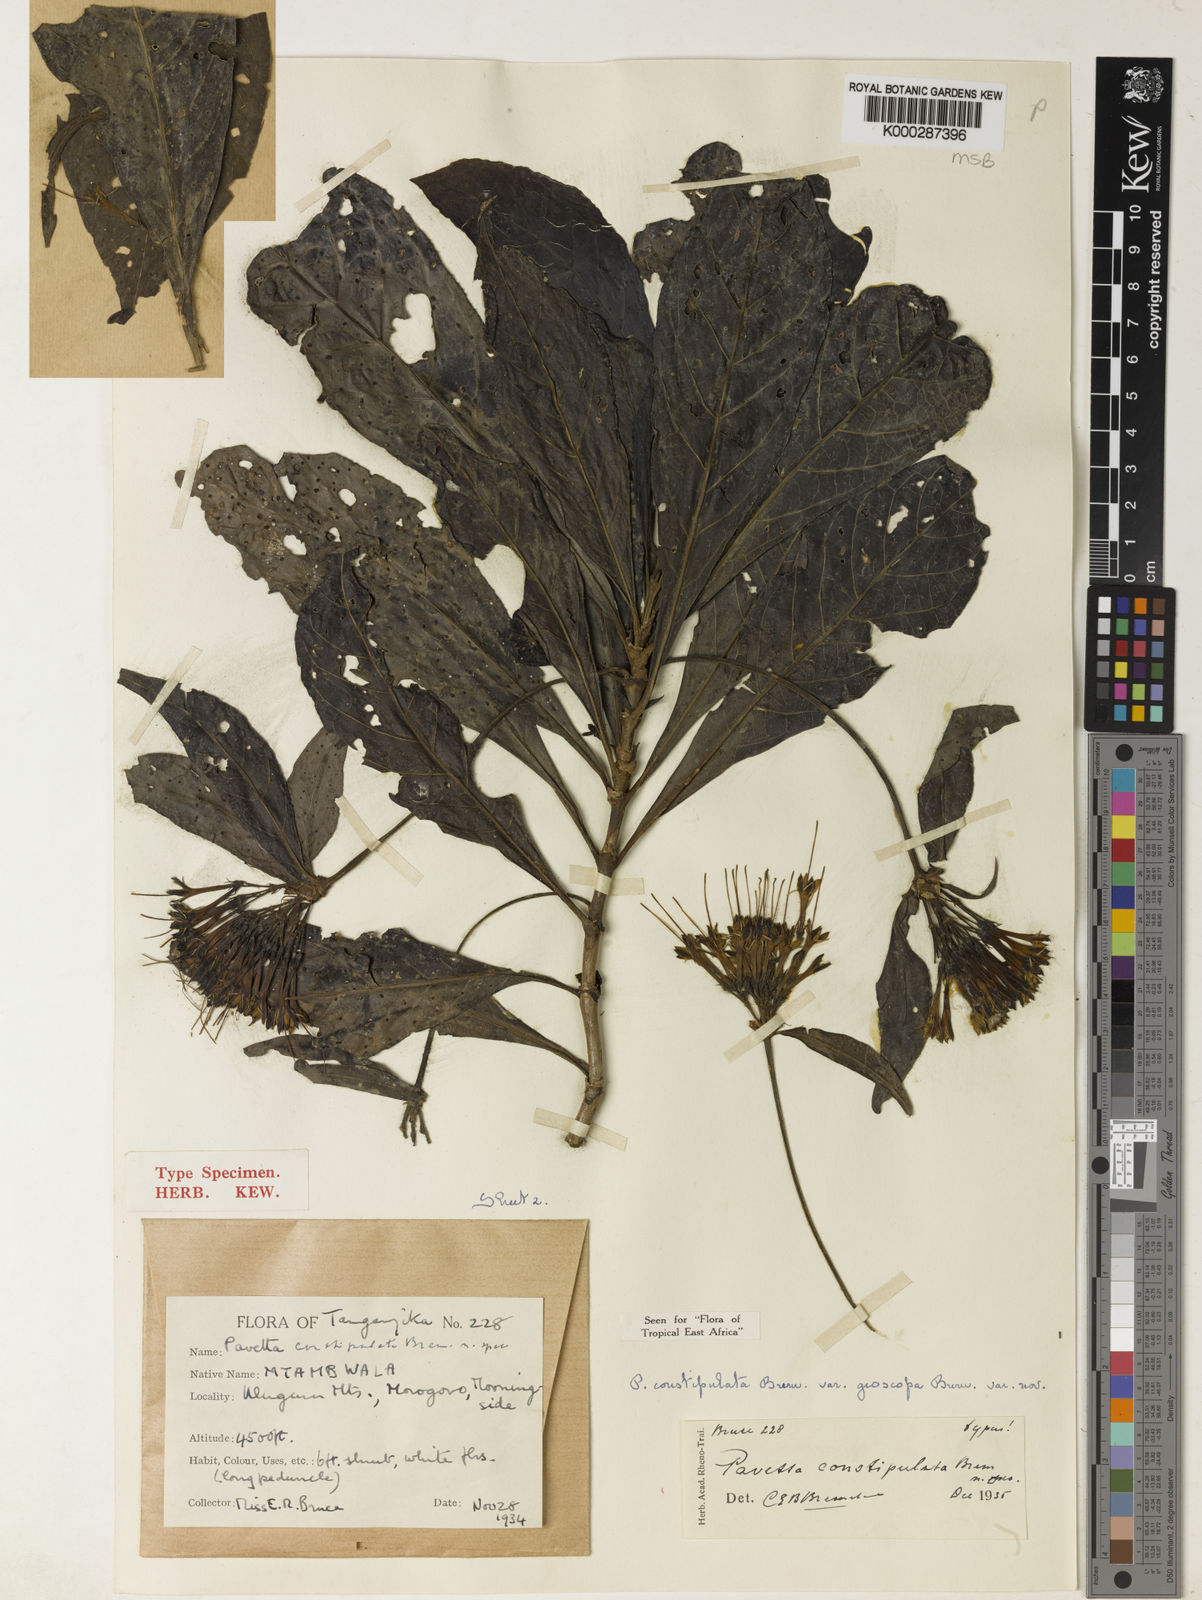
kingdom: Plantae
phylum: Tracheophyta
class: Magnoliopsida
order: Gentianales
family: Rubiaceae
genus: Pavetta
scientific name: Pavetta constipulata
